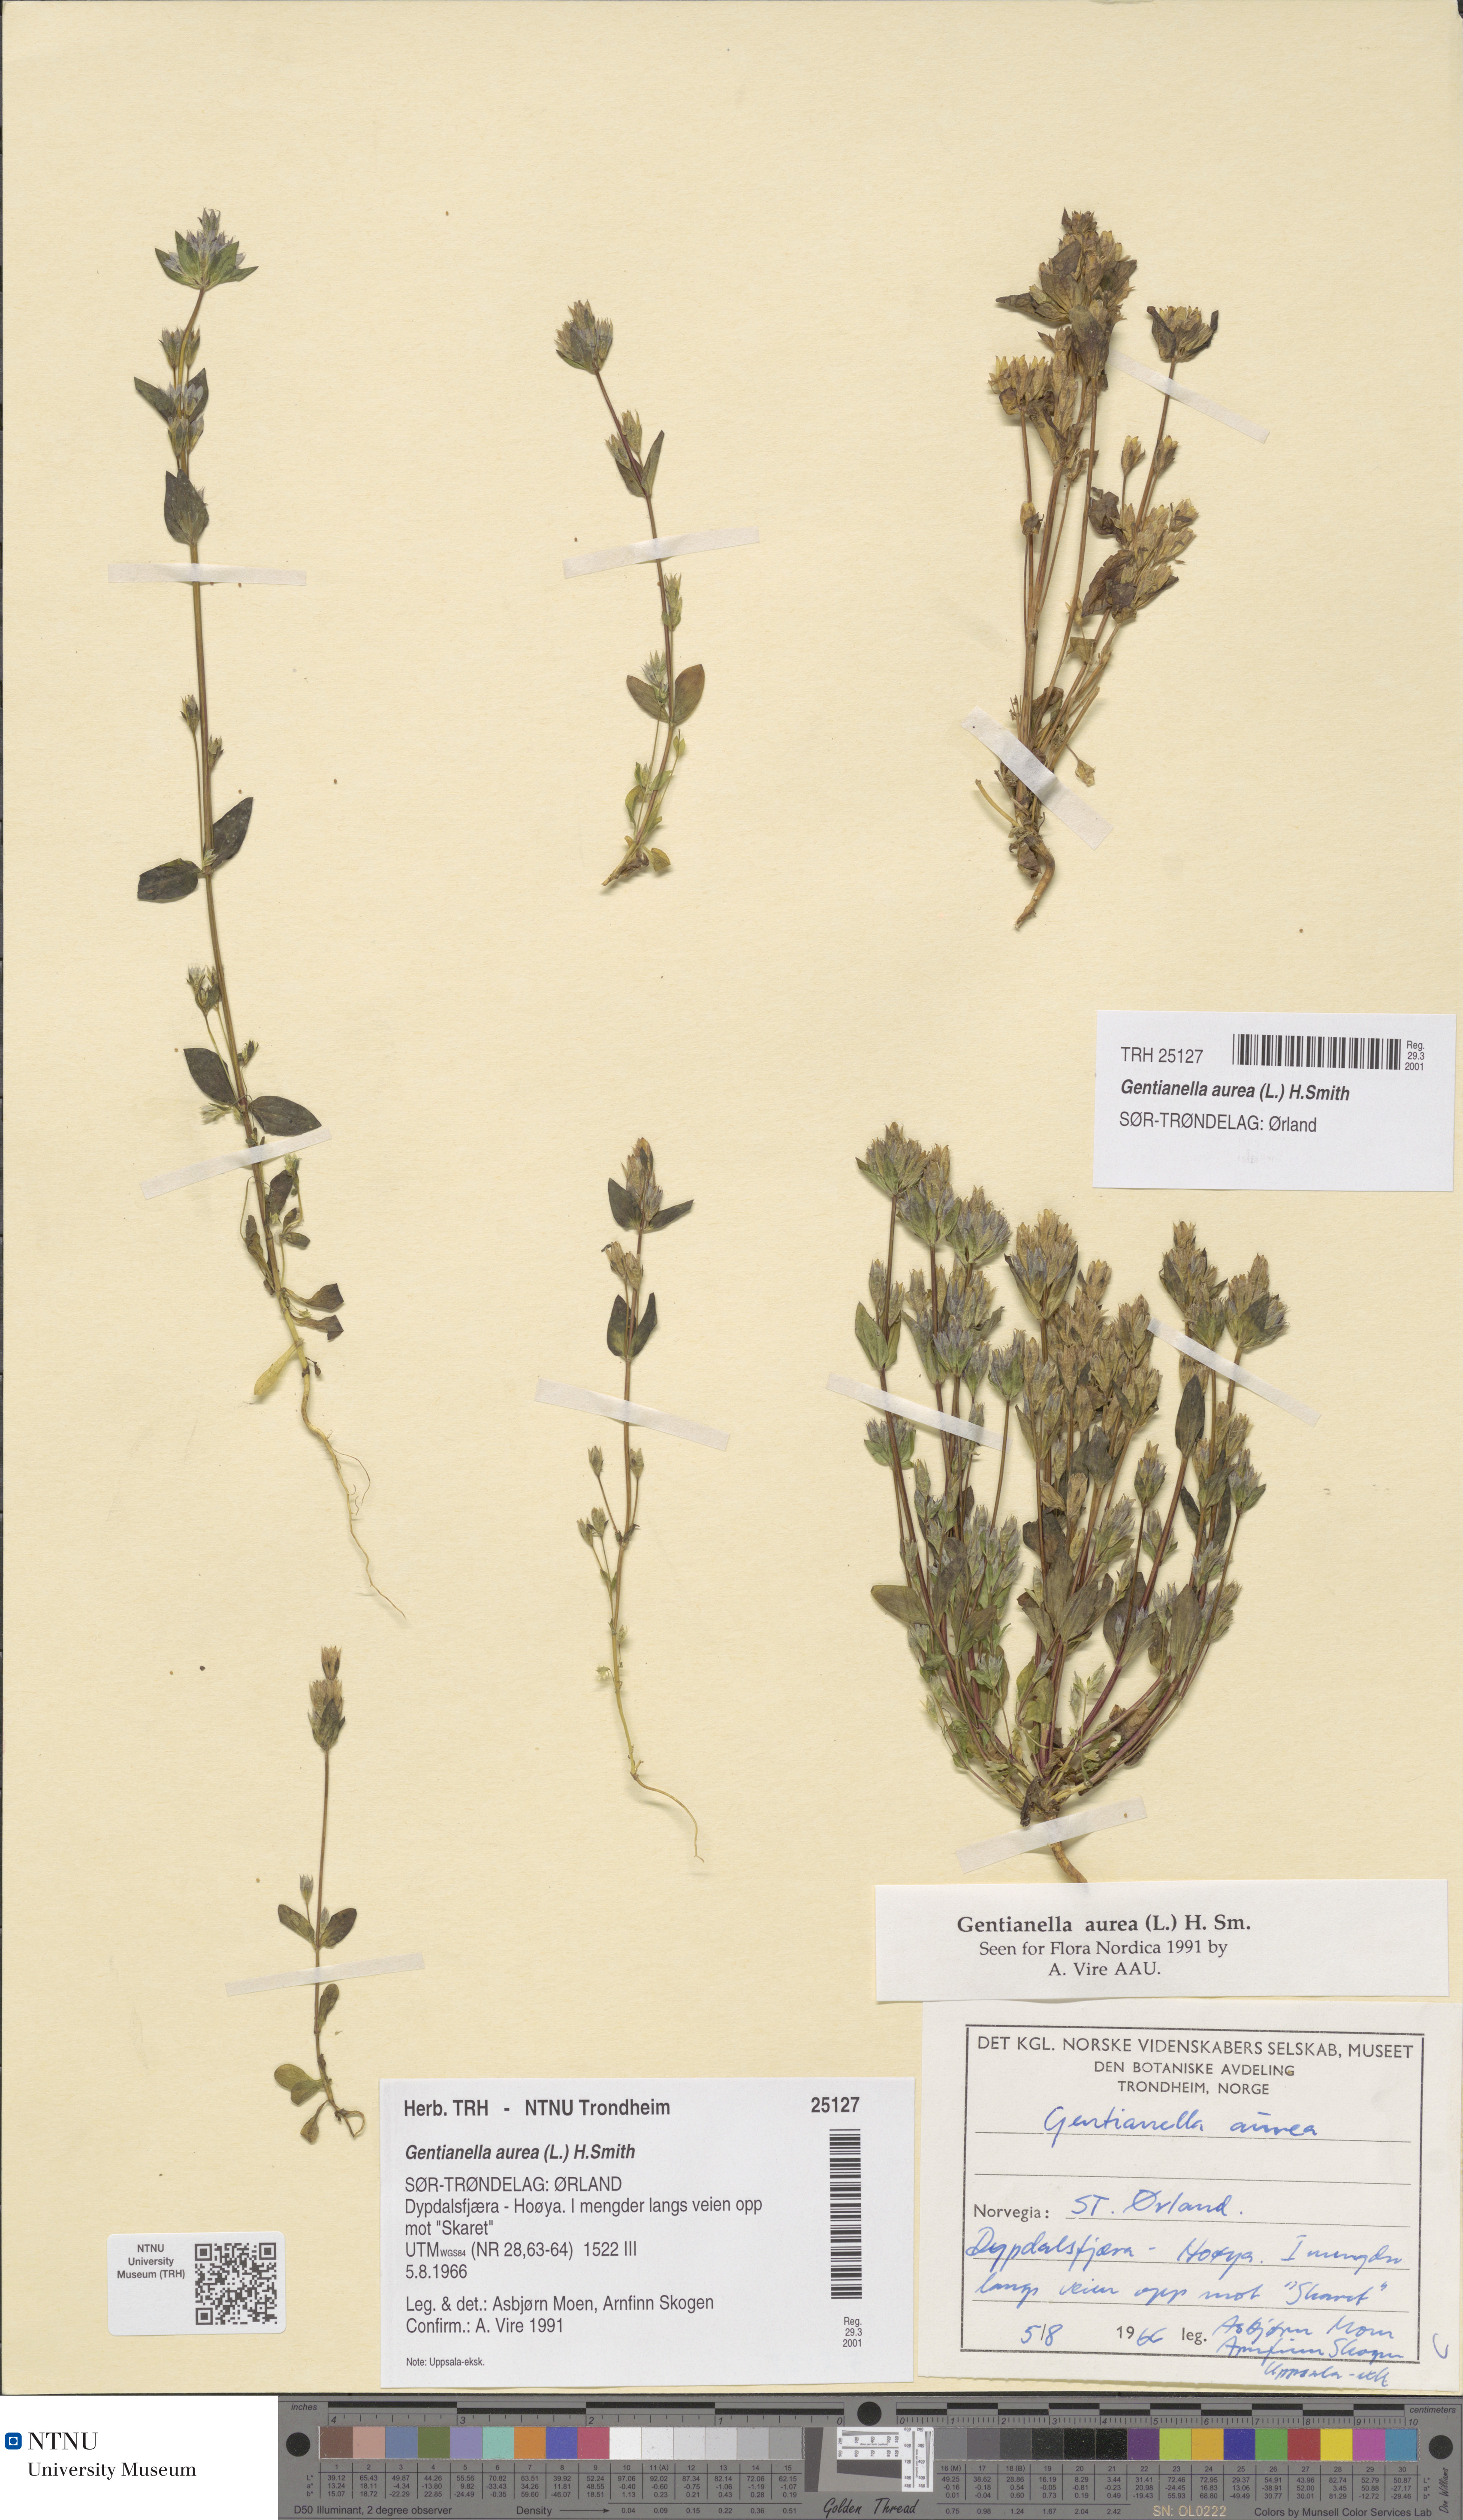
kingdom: Plantae
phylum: Tracheophyta
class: Magnoliopsida
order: Gentianales
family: Gentianaceae
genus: Gentianella
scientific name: Gentianella aurea
